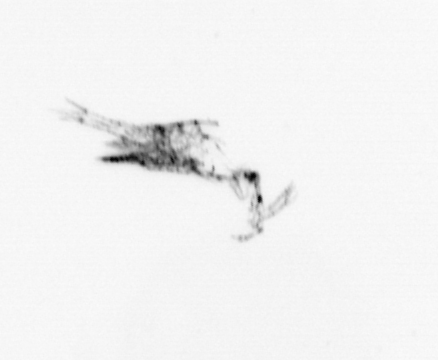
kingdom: Animalia
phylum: Arthropoda
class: Maxillopoda
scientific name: Maxillopoda
